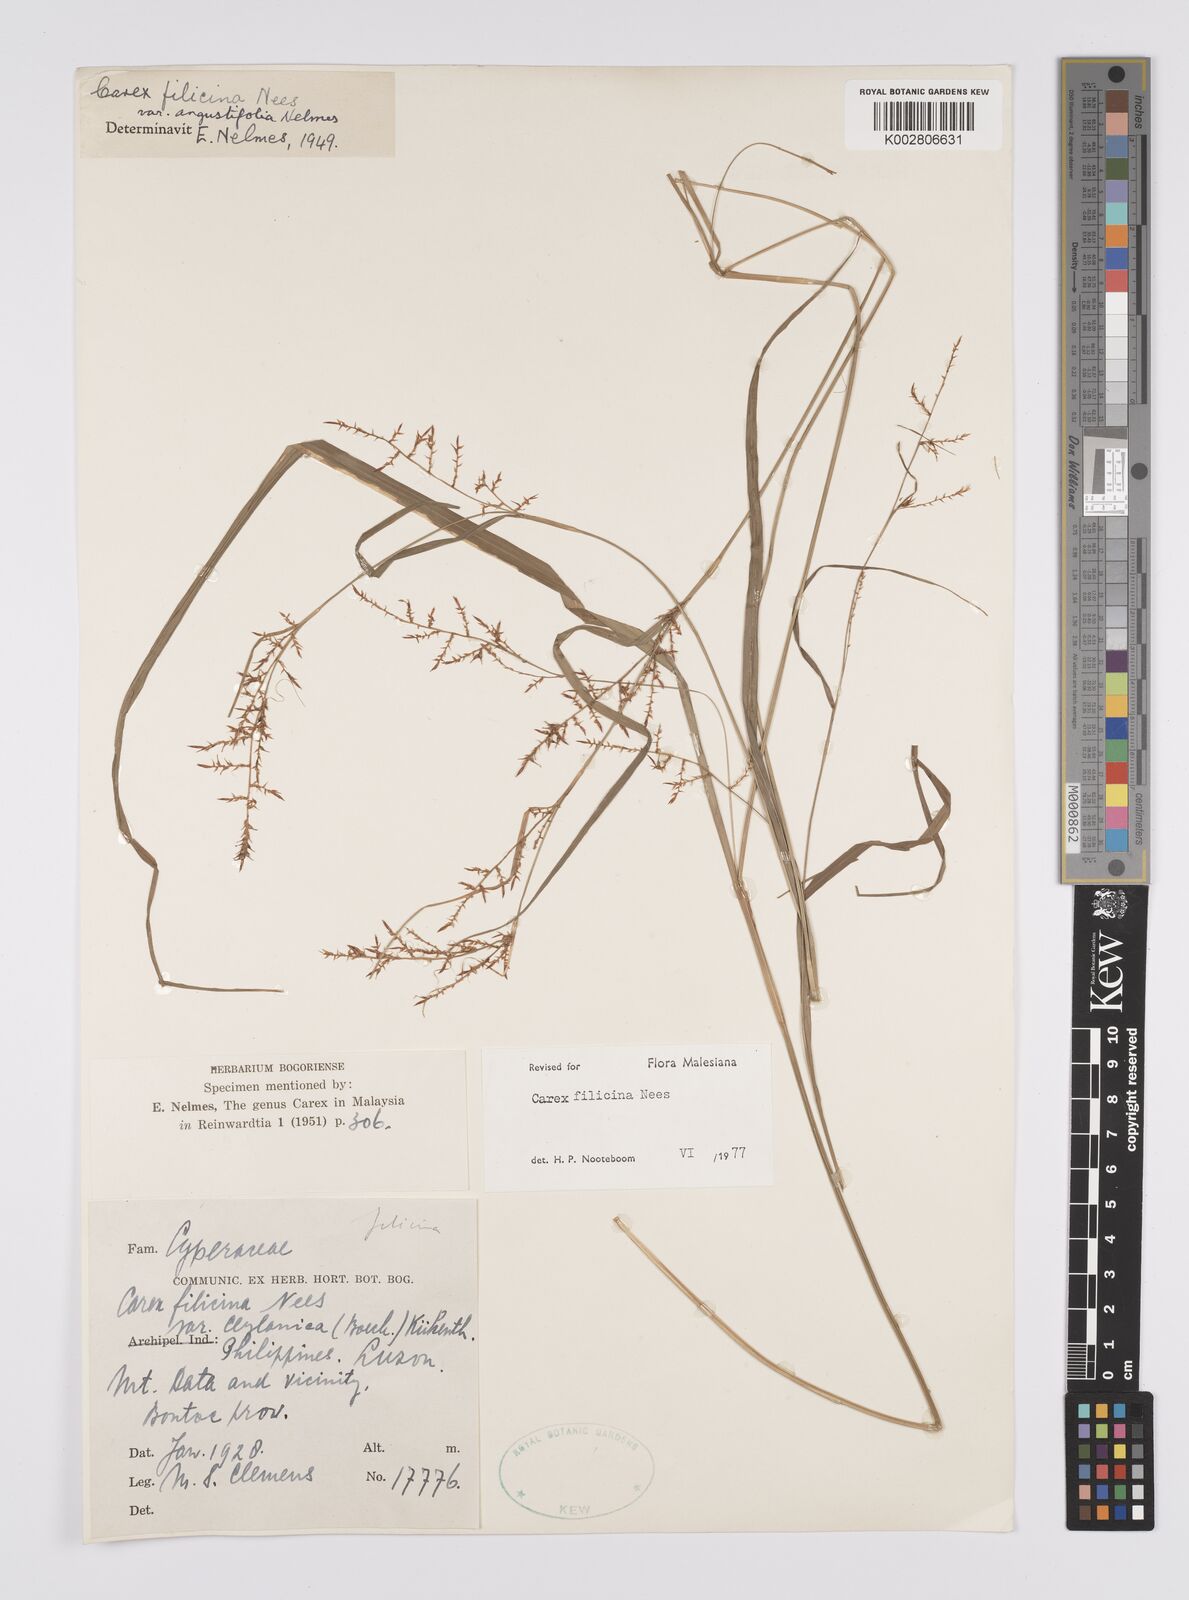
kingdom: Plantae
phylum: Tracheophyta
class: Liliopsida
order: Poales
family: Cyperaceae
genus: Carex
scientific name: Carex filicina
